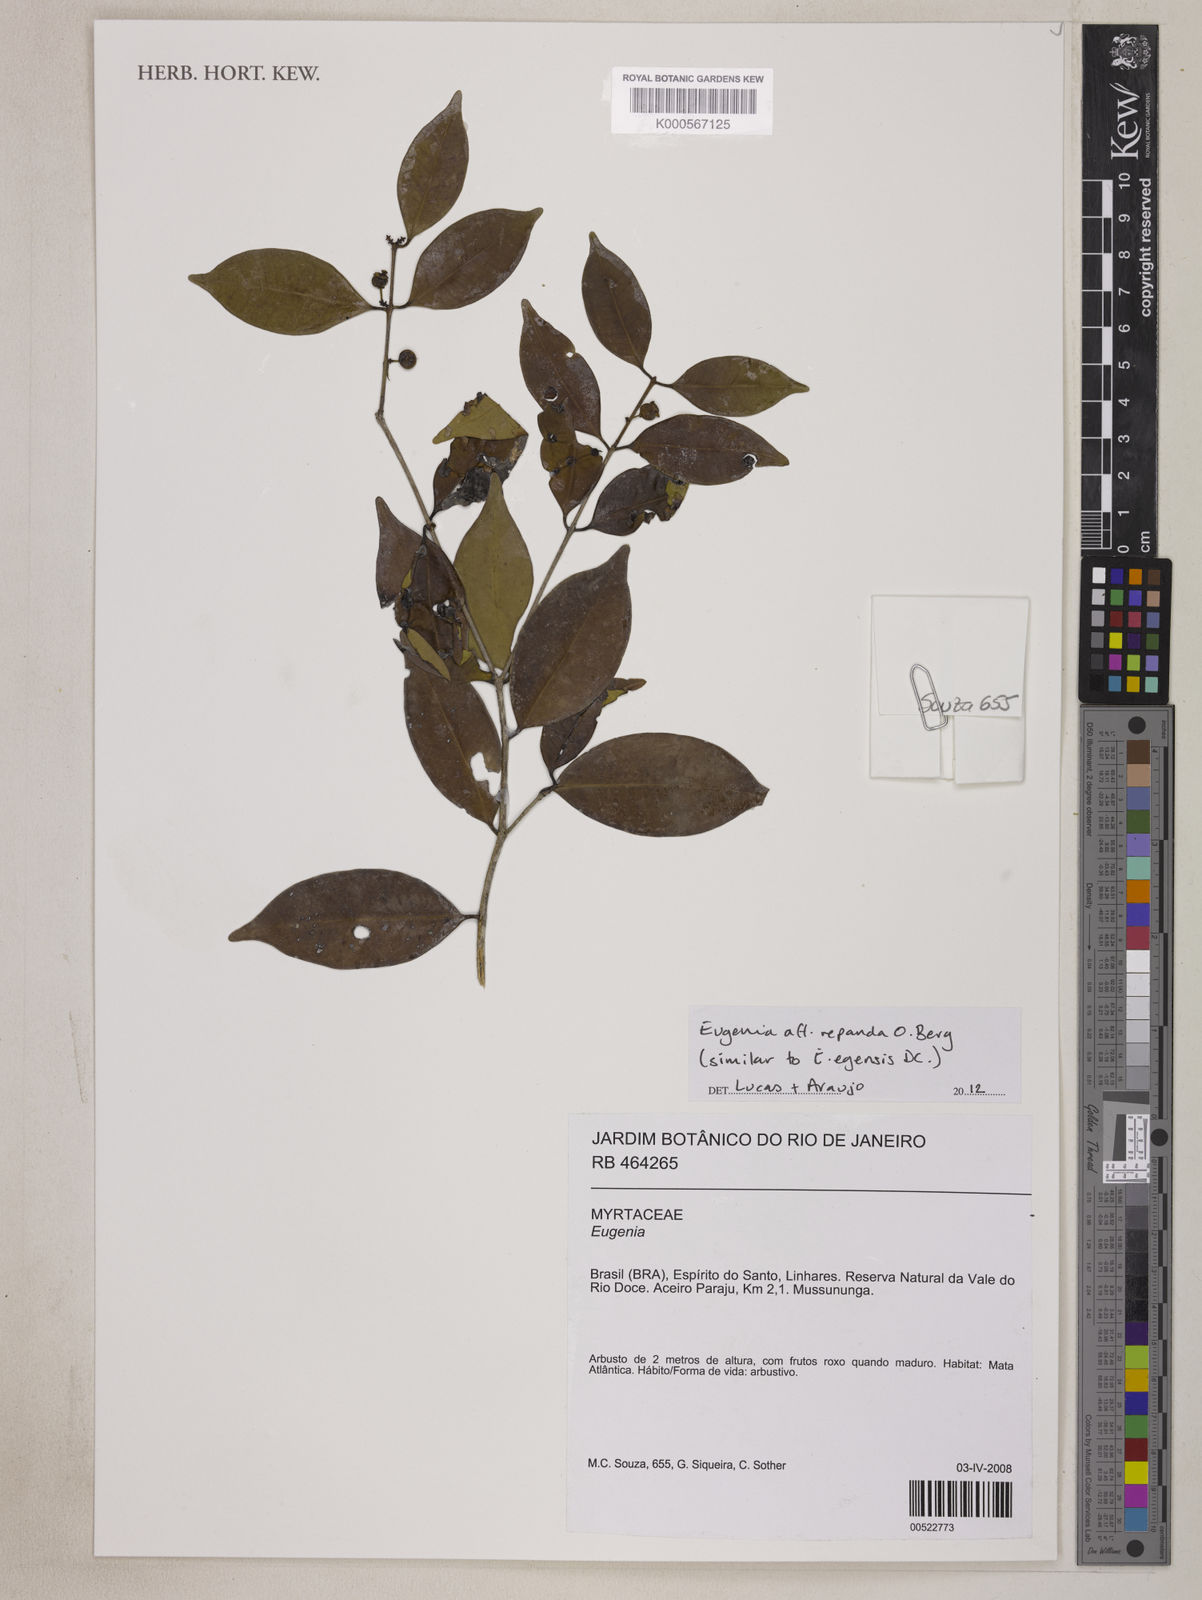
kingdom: Plantae
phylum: Tracheophyta
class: Magnoliopsida
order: Myrtales
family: Myrtaceae
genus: Eugenia
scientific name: Eugenia repanda
